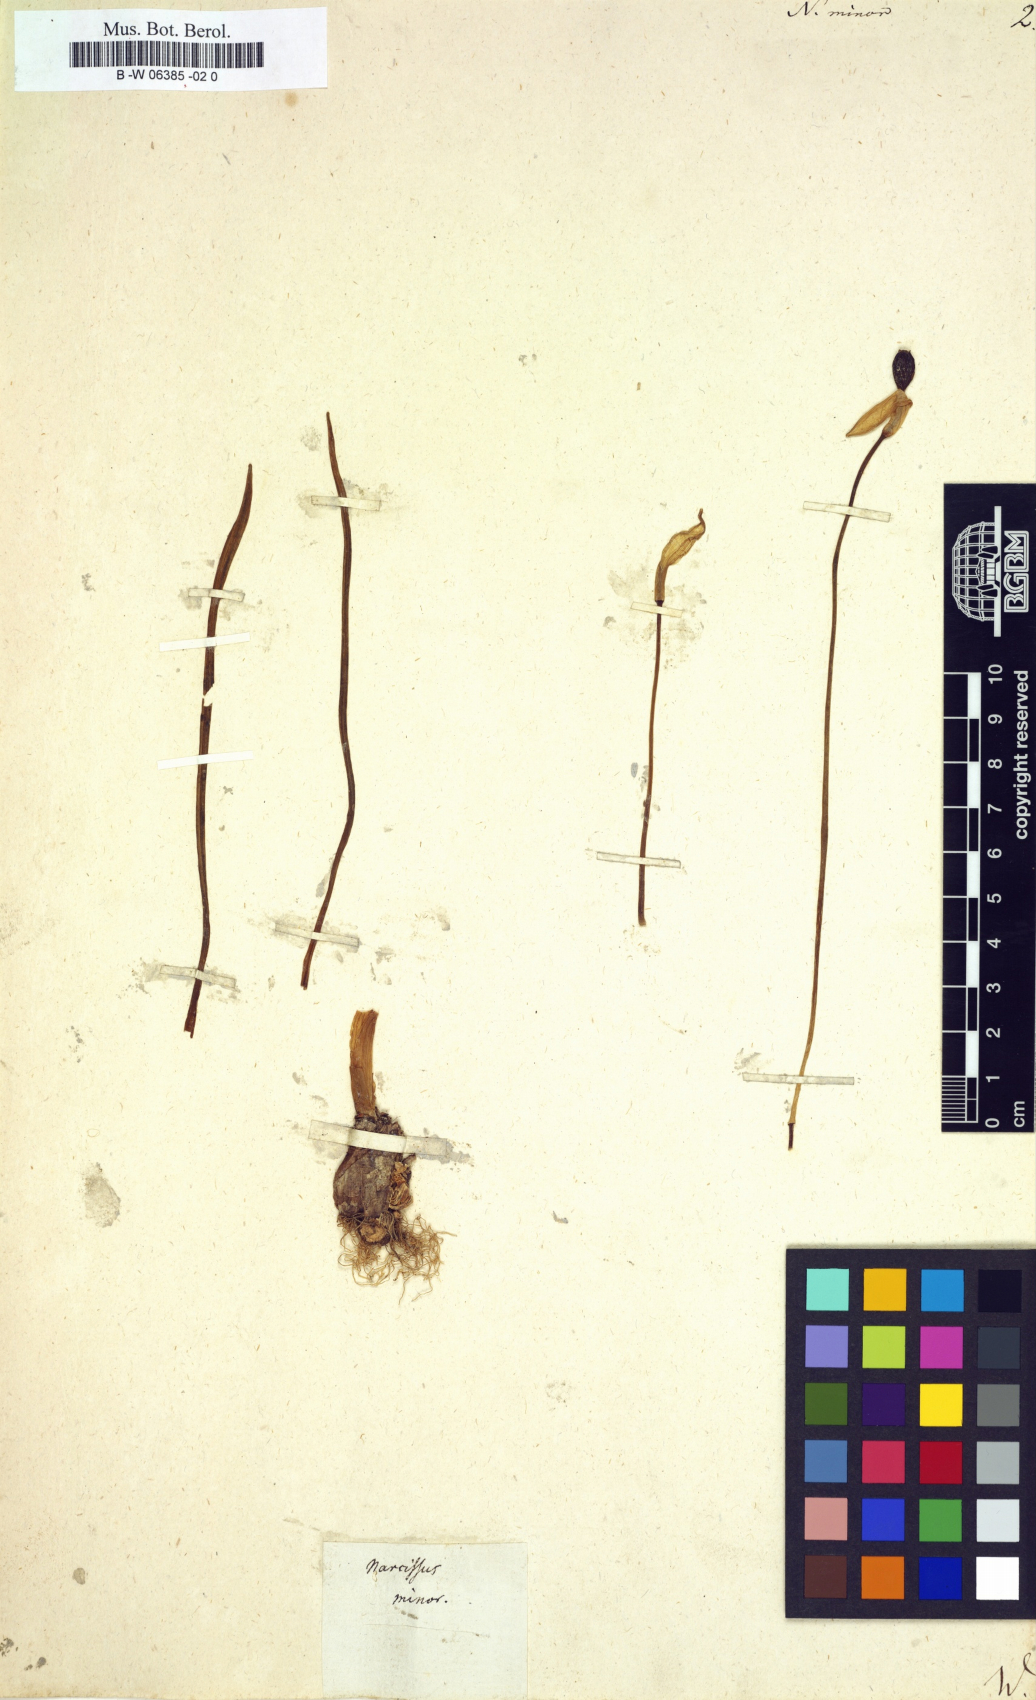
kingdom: Plantae
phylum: Tracheophyta
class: Liliopsida
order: Asparagales
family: Amaryllidaceae
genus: Narcissus
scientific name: Narcissus minor
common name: Lesser daffodil
